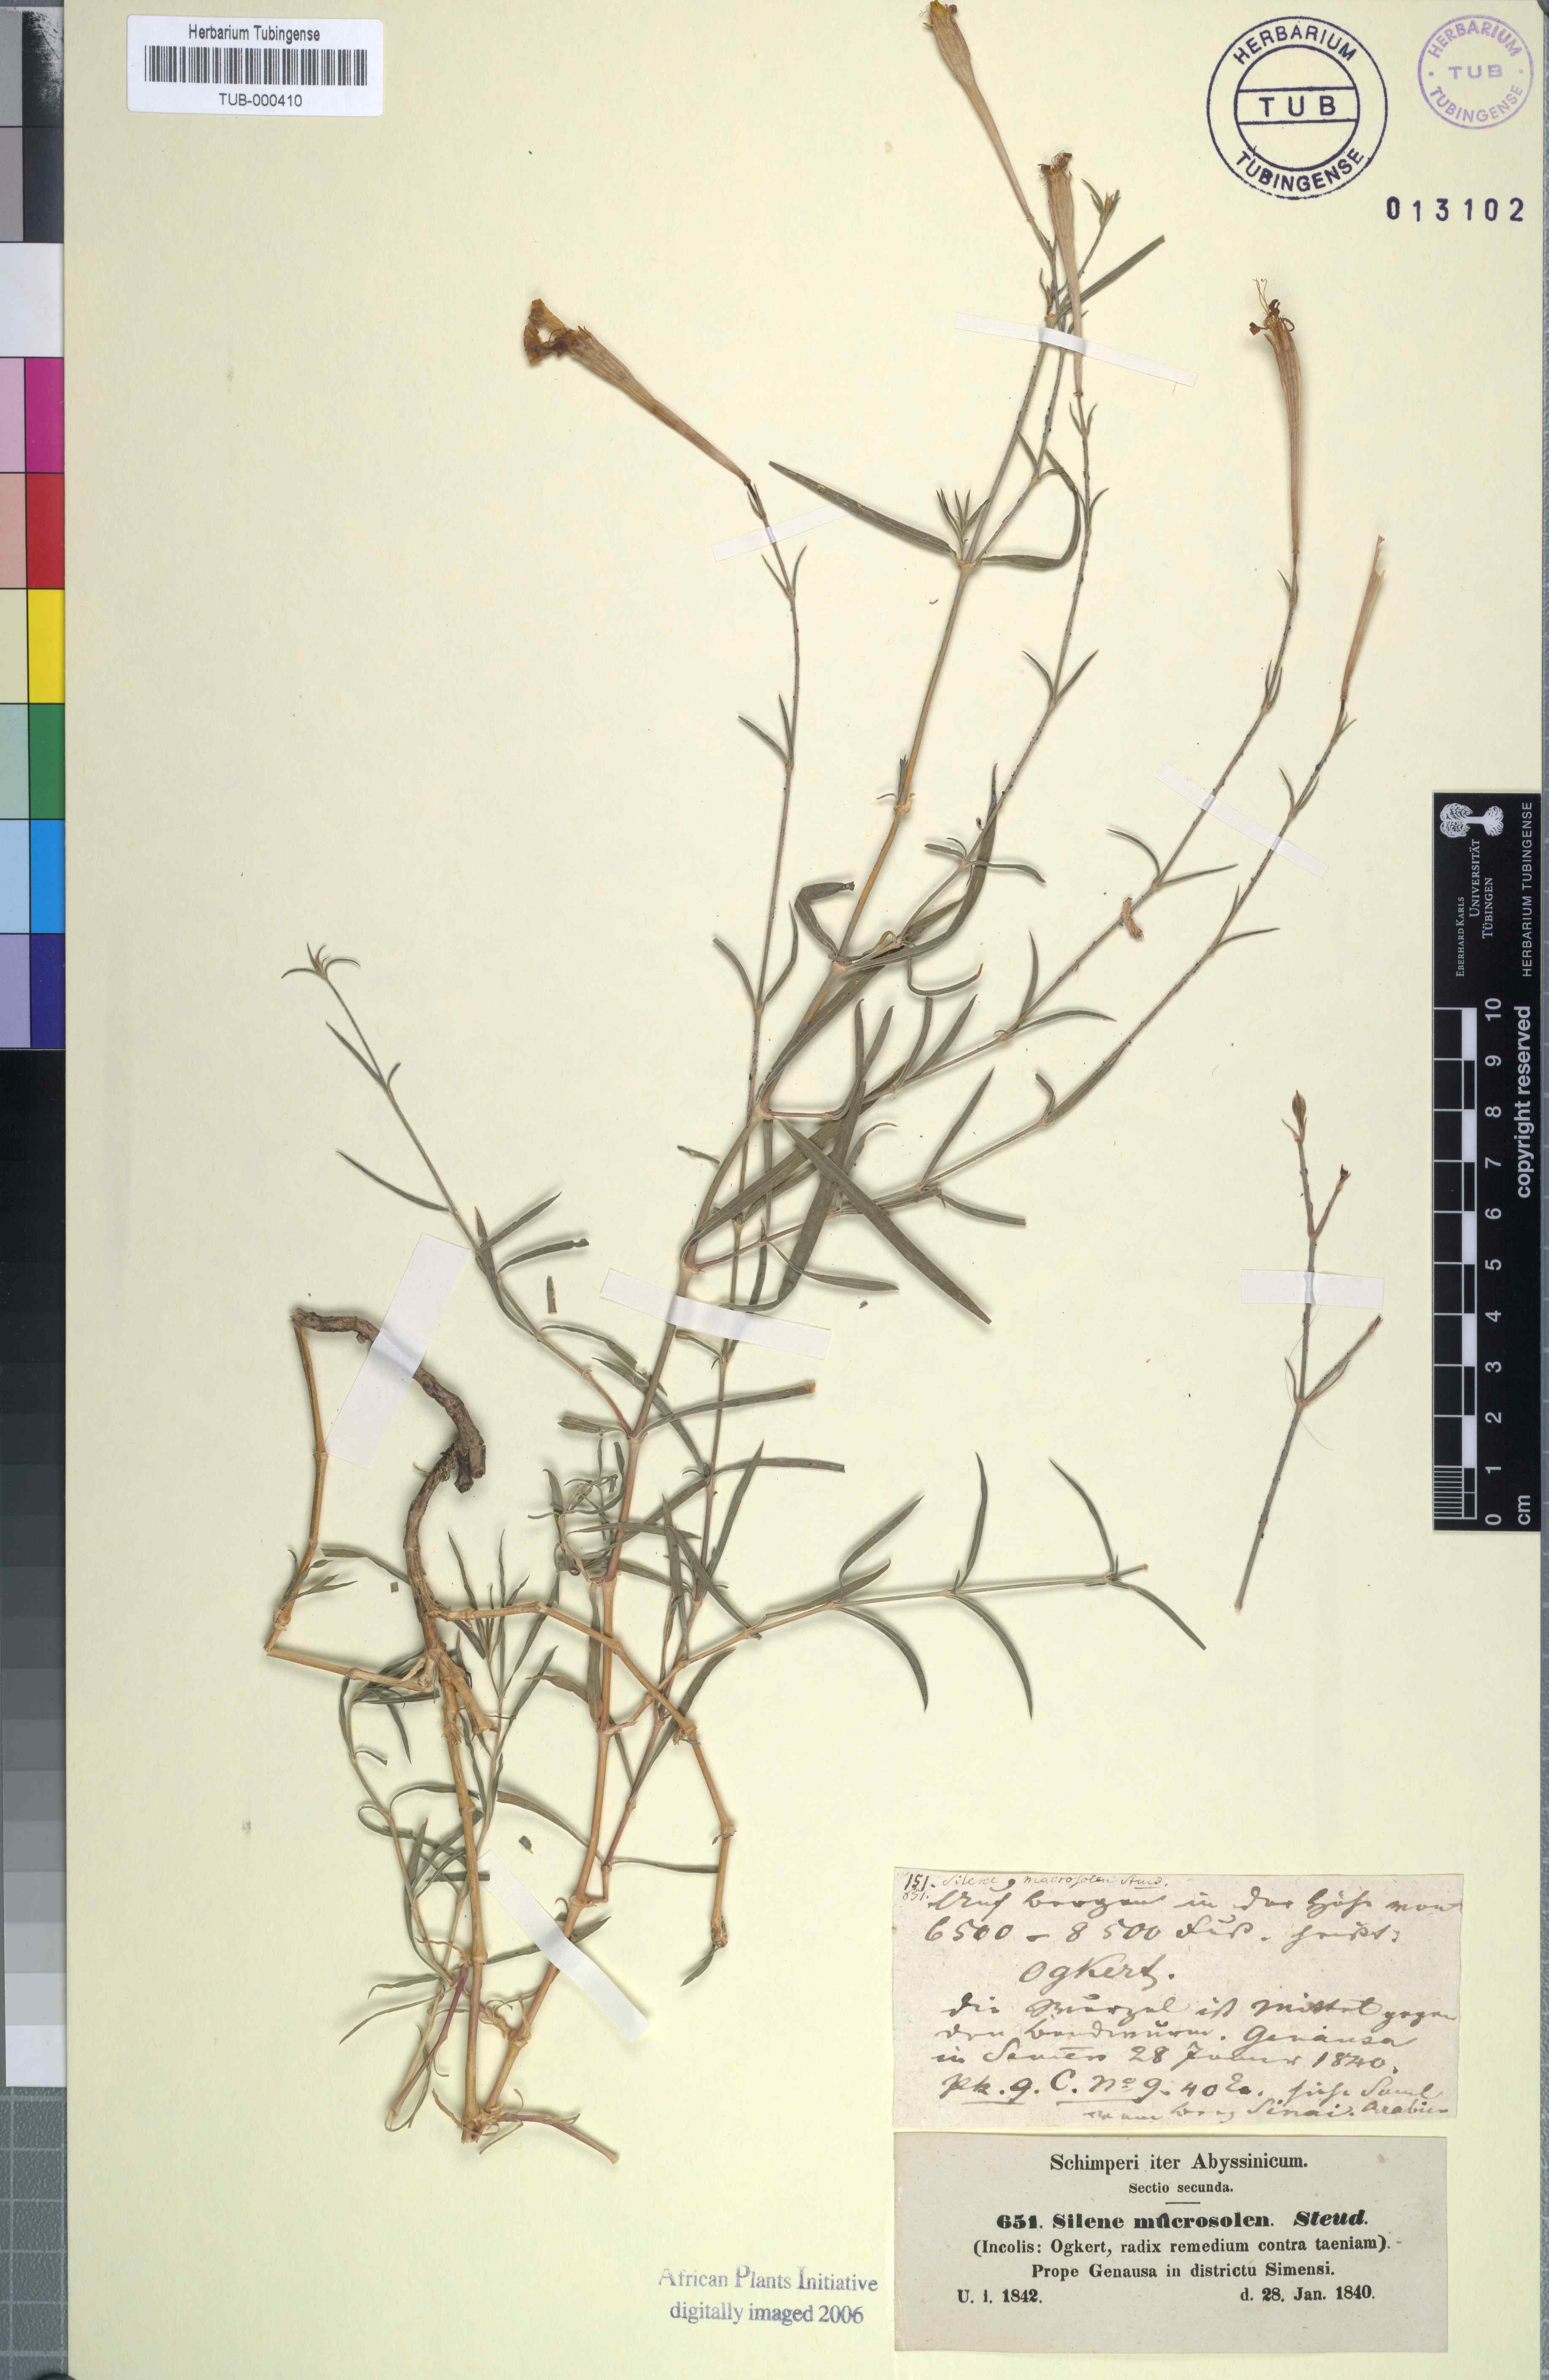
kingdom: Plantae
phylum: Tracheophyta
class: Magnoliopsida
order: Caryophyllales
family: Caryophyllaceae
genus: Silene
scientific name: Silene macrosolen
